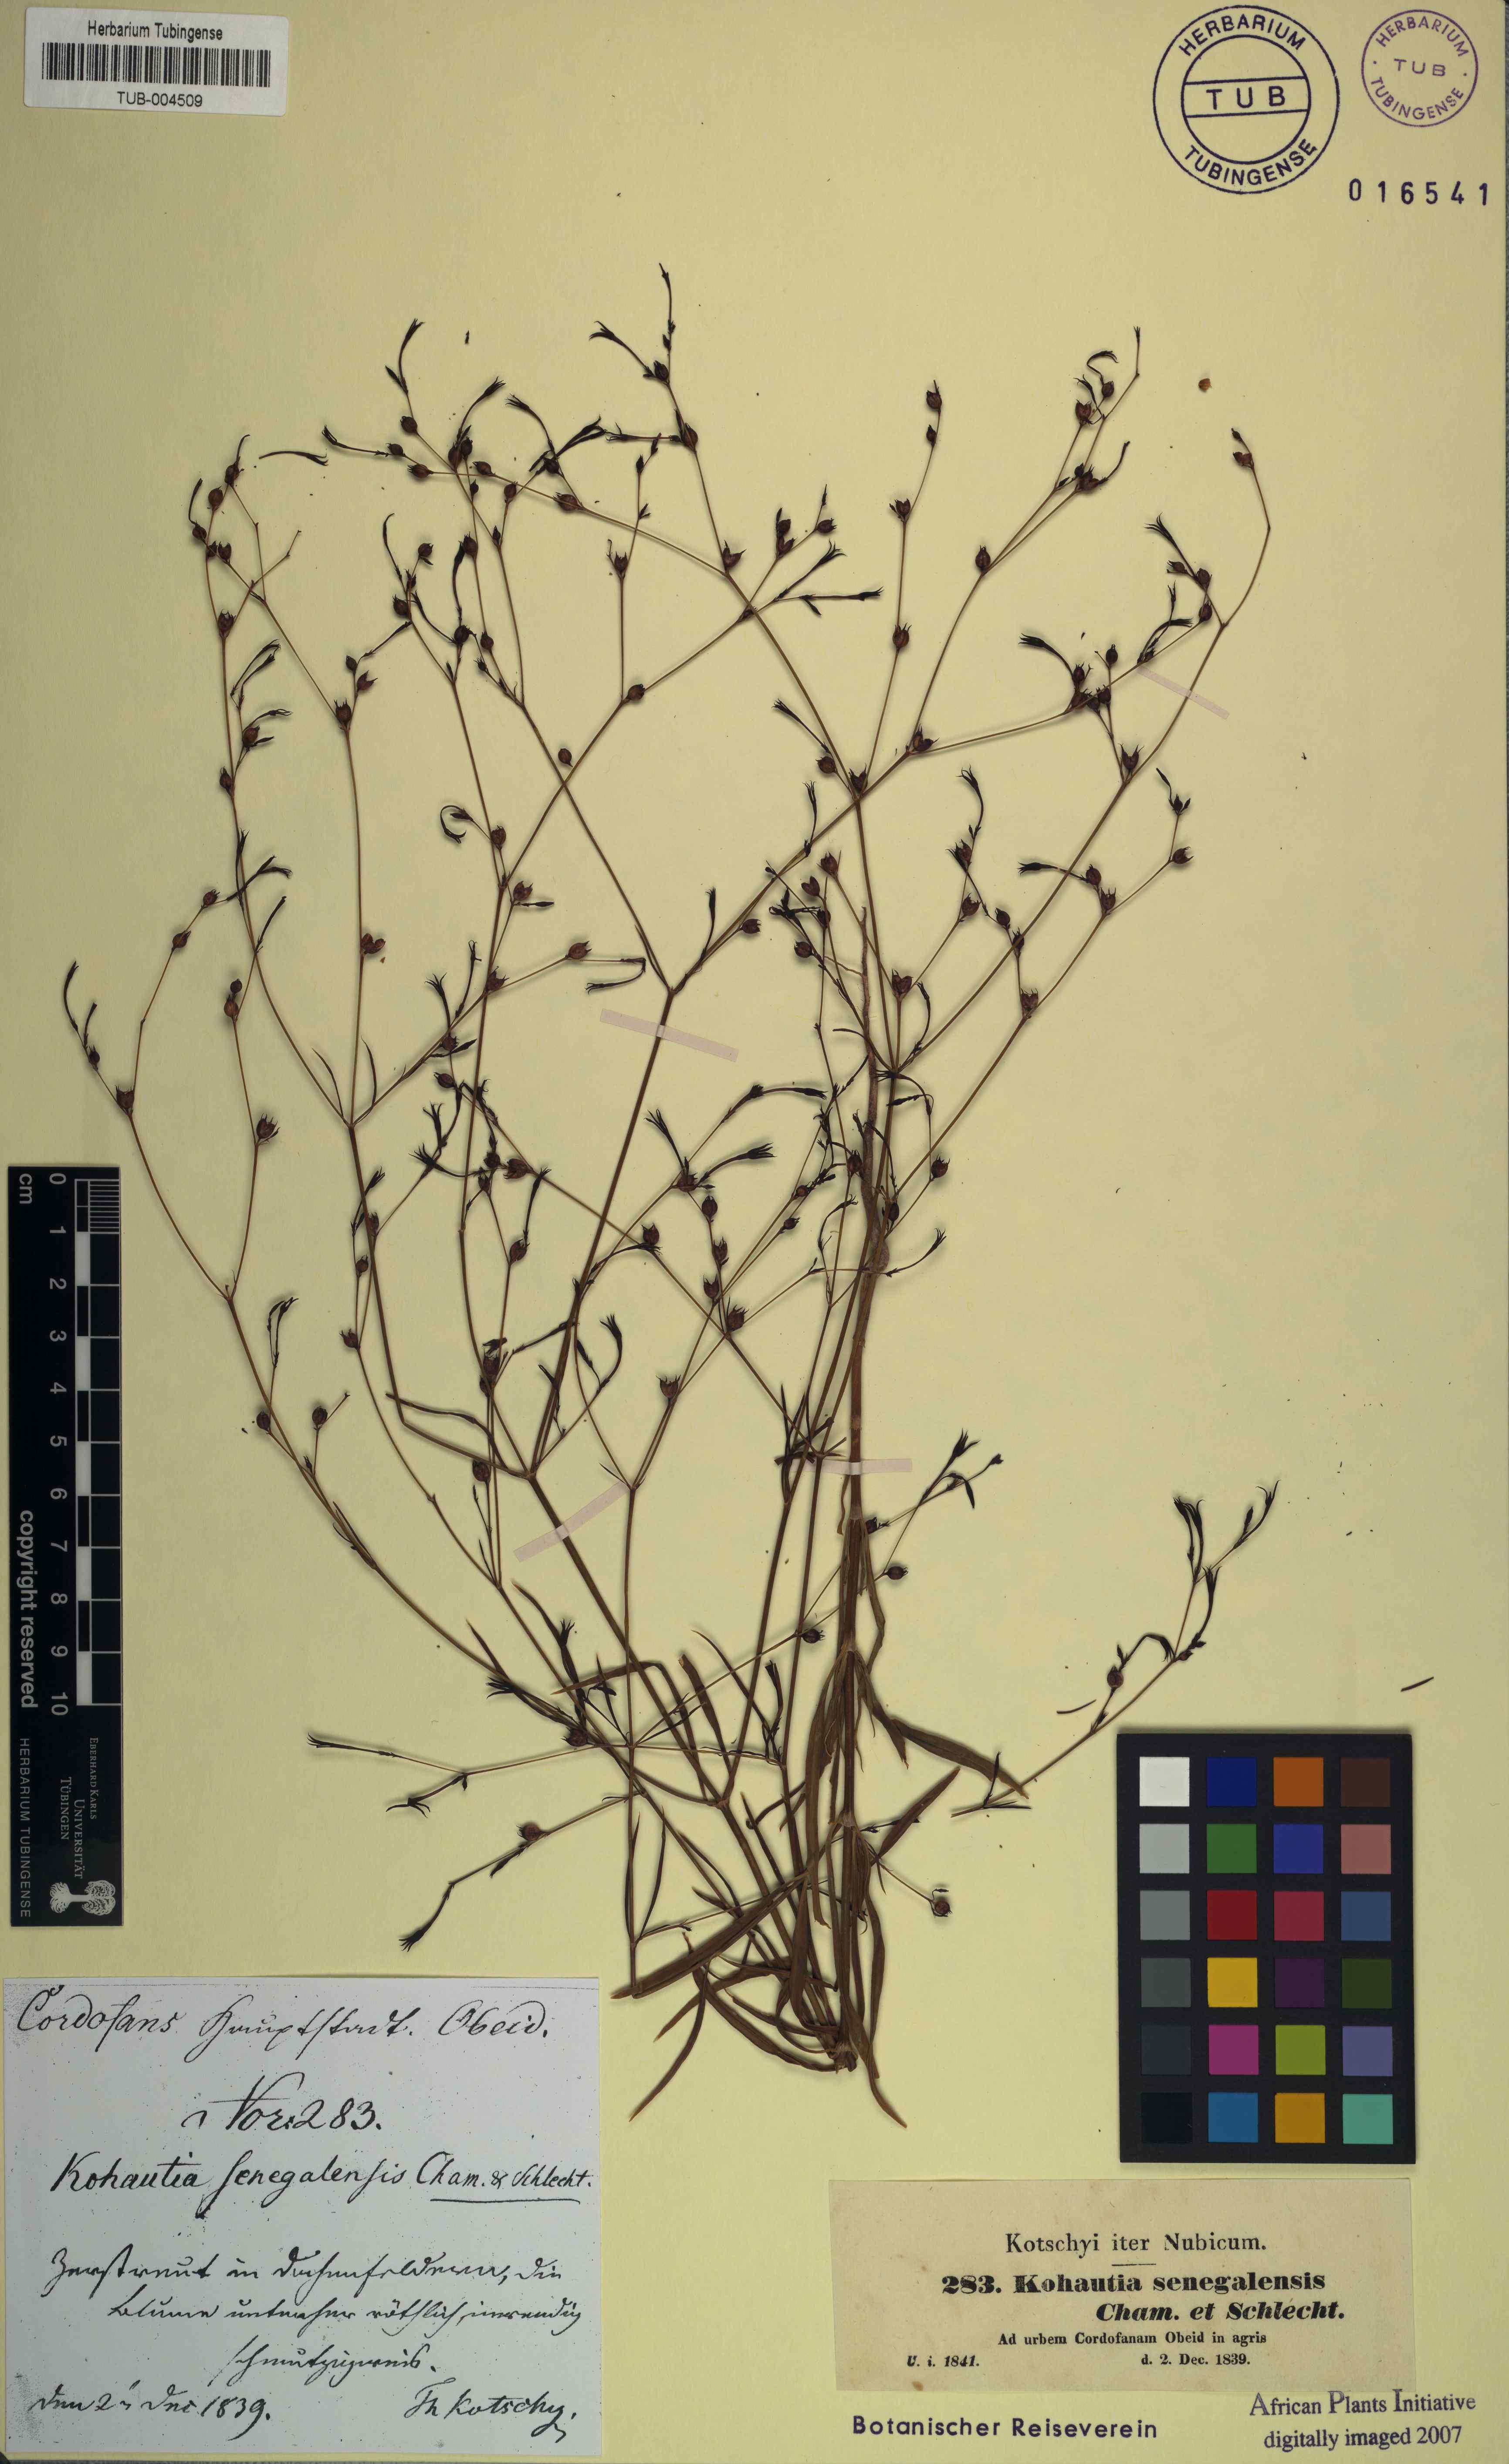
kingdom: Plantae
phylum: Tracheophyta
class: Magnoliopsida
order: Gentianales
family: Rubiaceae
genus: Kohautia
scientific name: Kohautia tenuis
